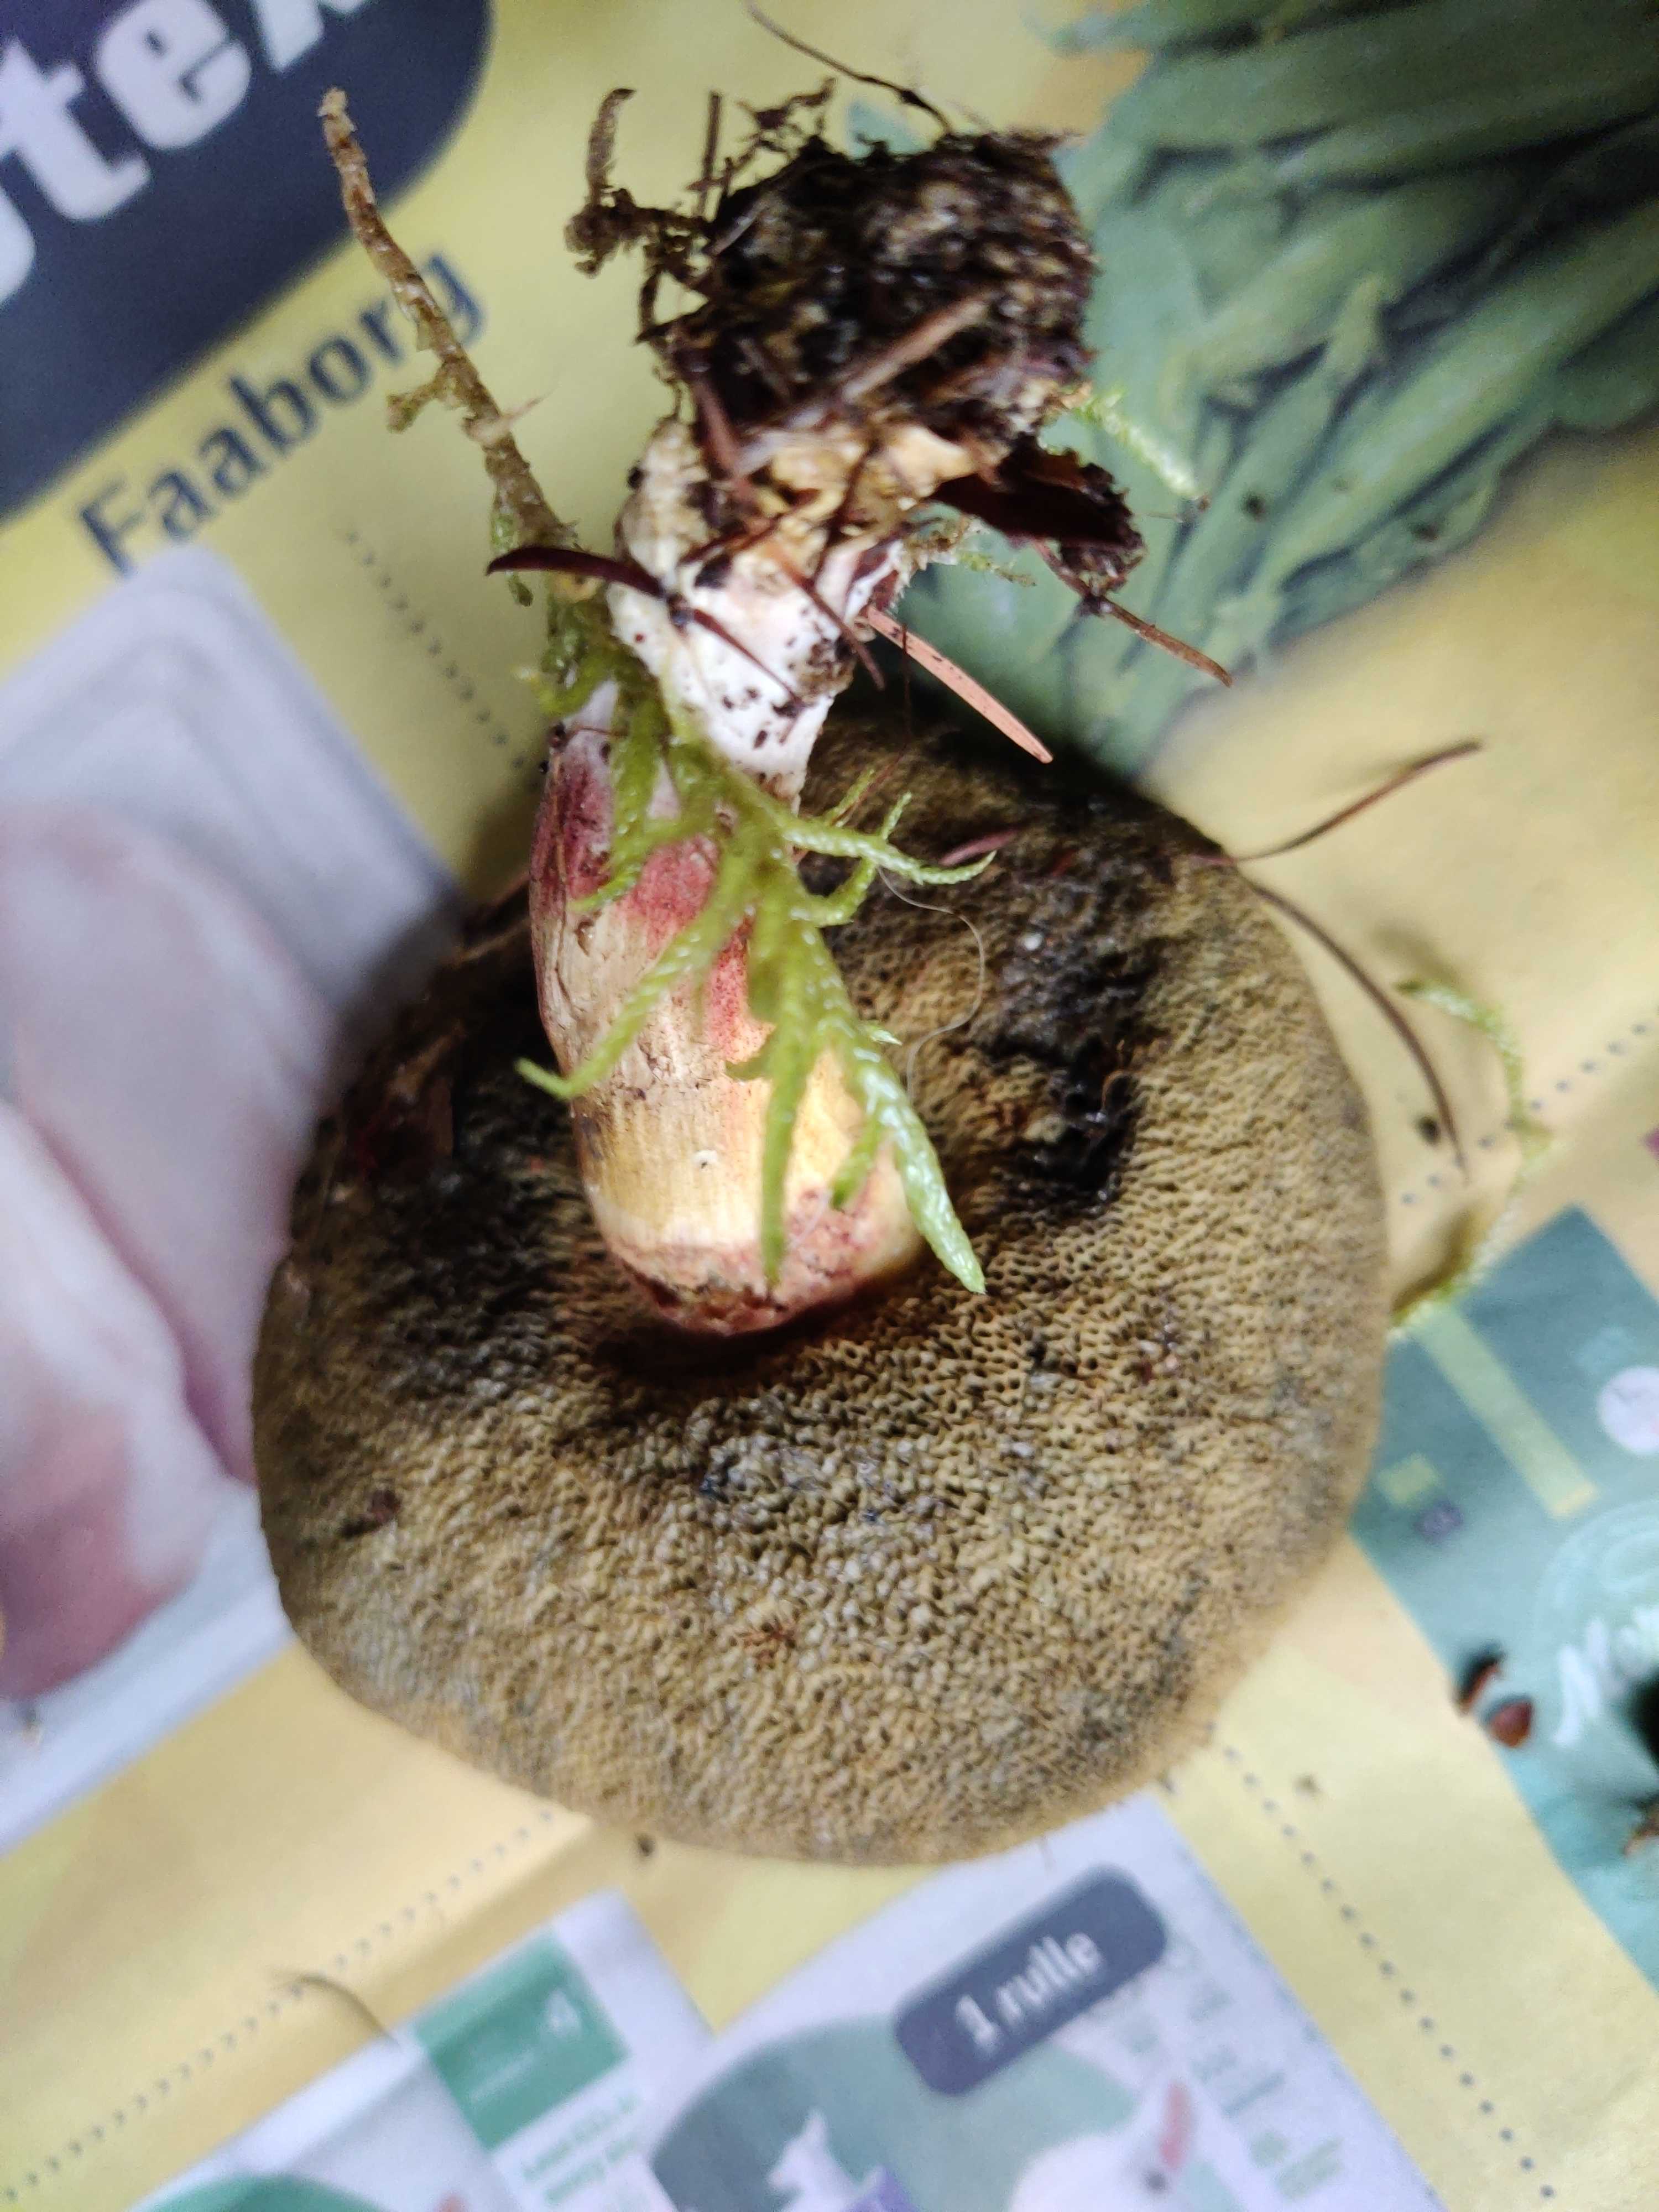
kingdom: Fungi
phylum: Basidiomycota
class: Agaricomycetes
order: Boletales
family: Boletaceae
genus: Xerocomellus
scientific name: Xerocomellus
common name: dværgrørhat
